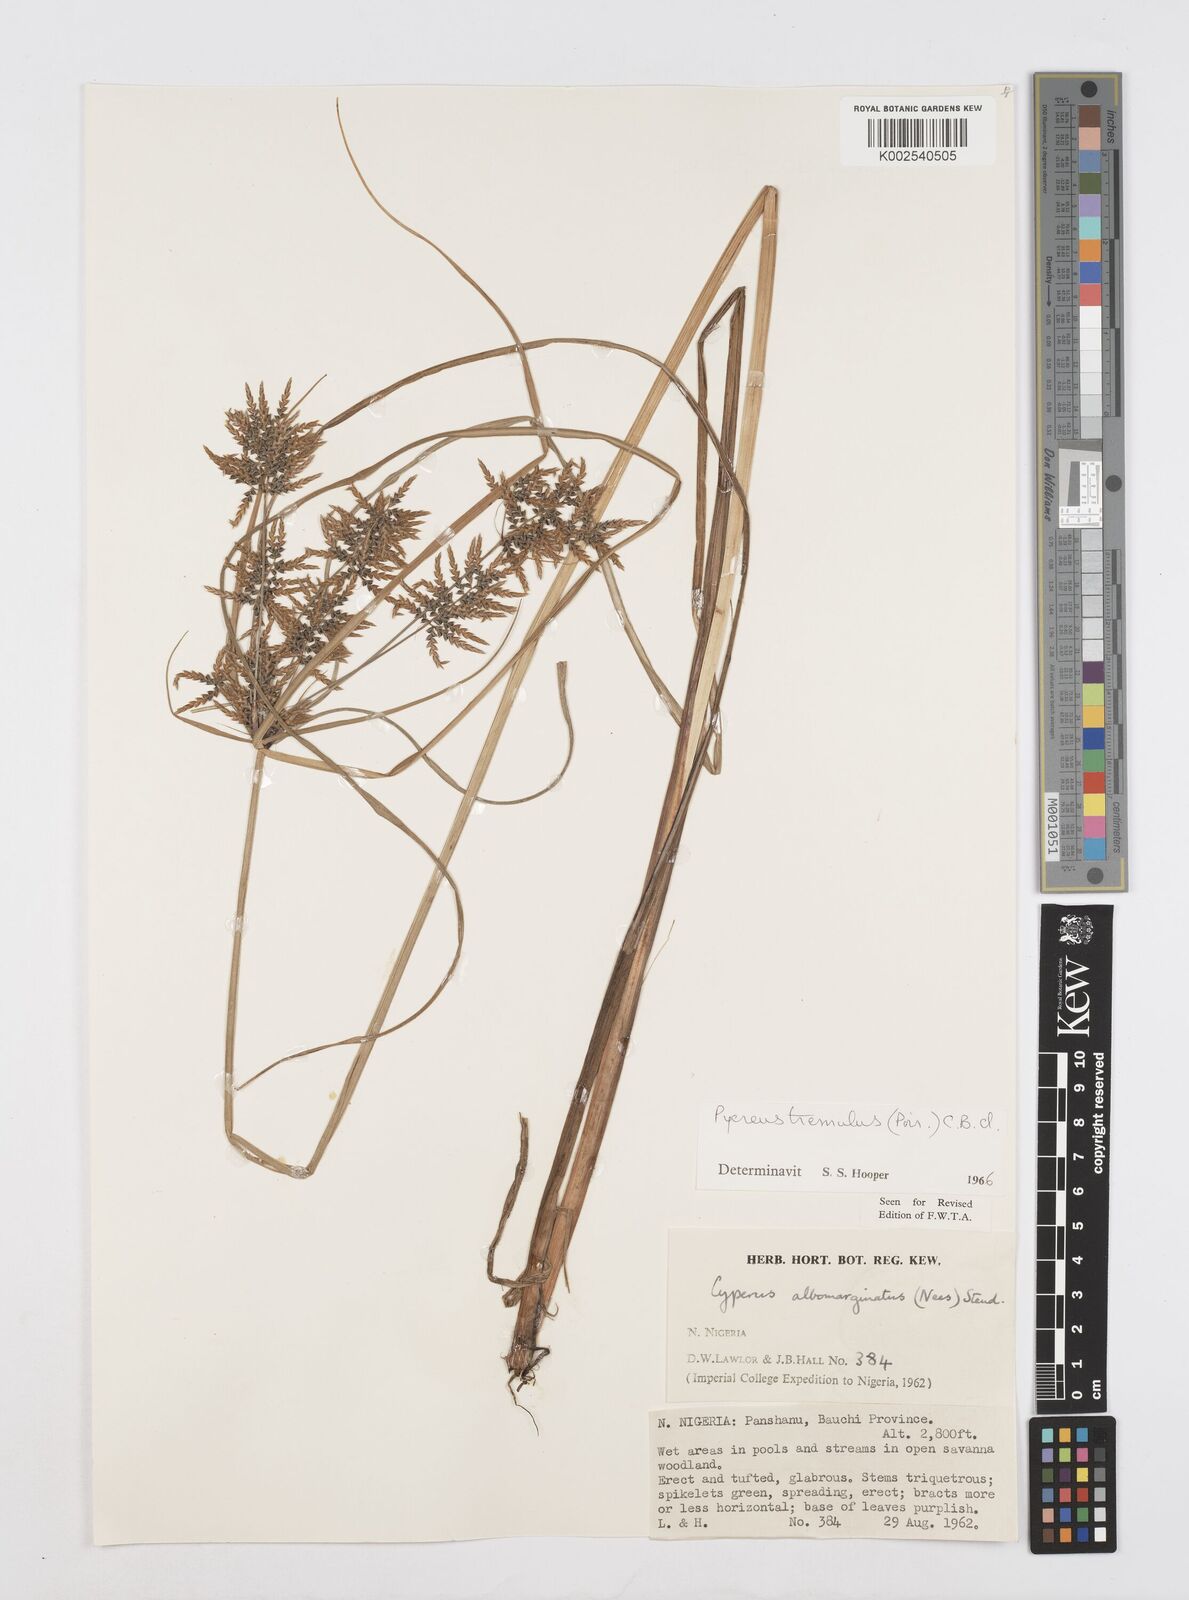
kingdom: Plantae
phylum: Tracheophyta
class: Liliopsida
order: Poales
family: Cyperaceae
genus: Cyperus
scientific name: Cyperus macrostachyos
